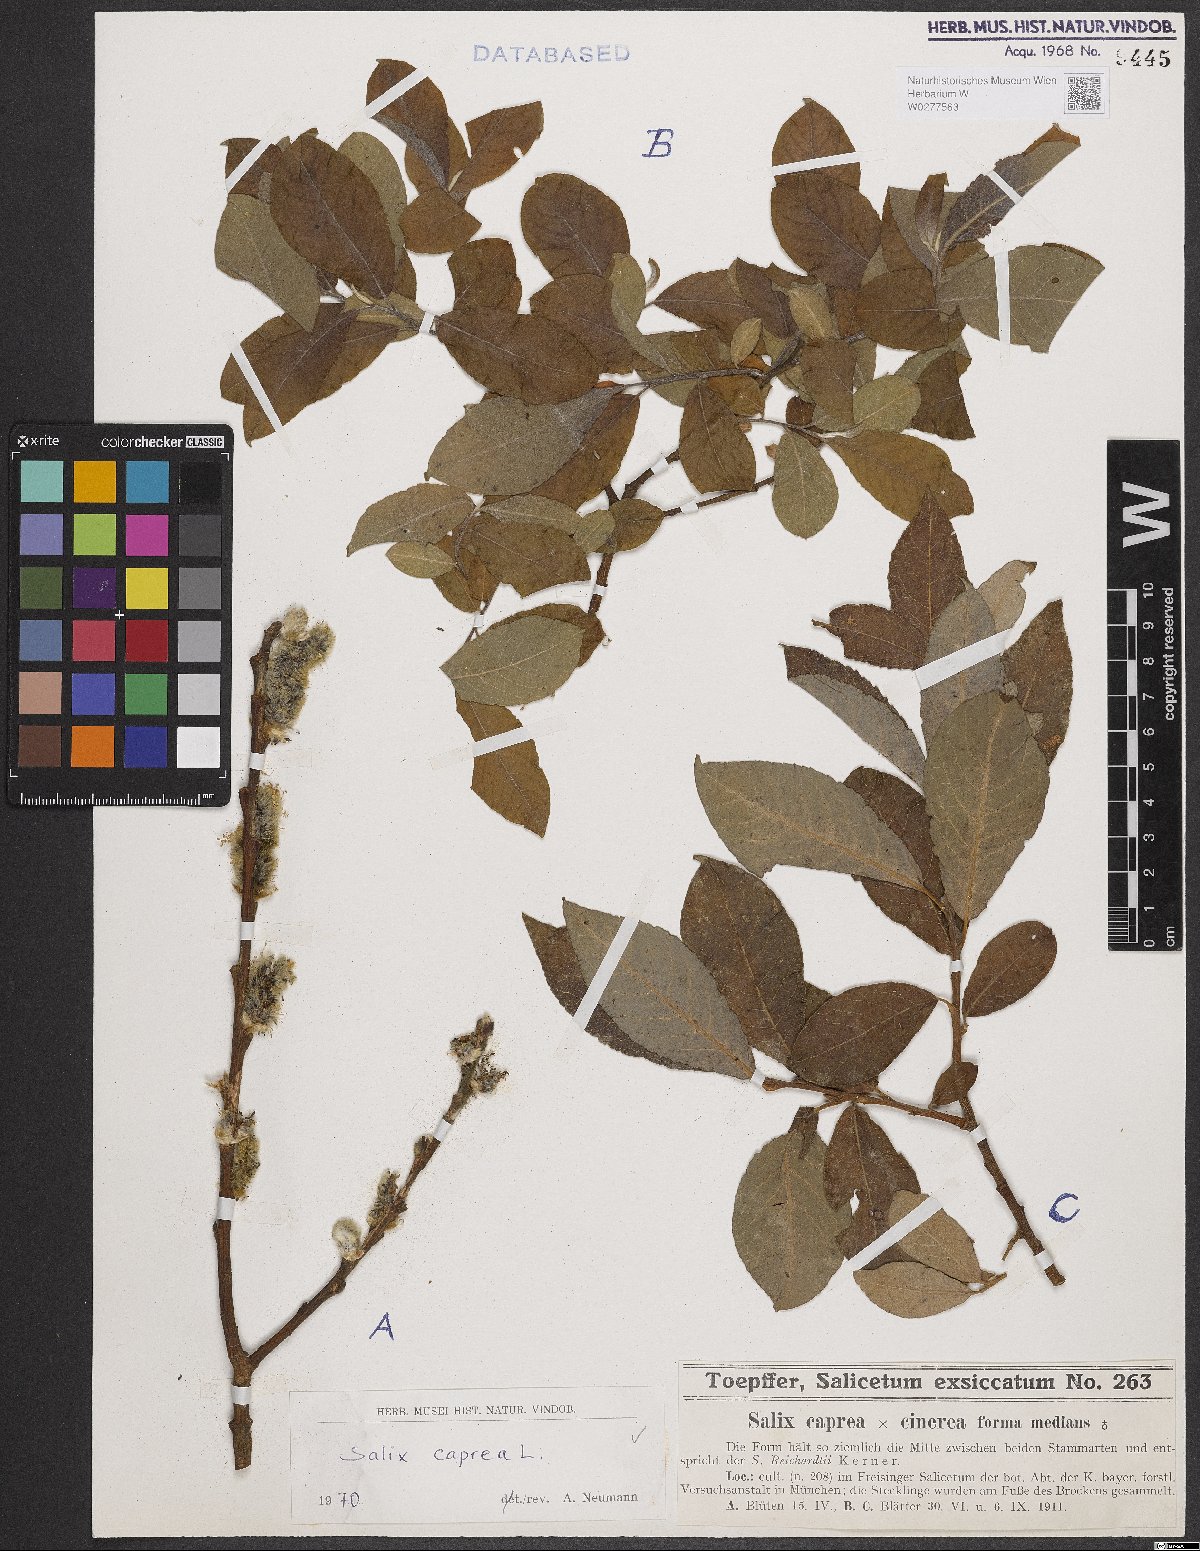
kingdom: Plantae
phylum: Tracheophyta
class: Magnoliopsida
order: Malpighiales
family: Salicaceae
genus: Salix
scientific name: Salix caprea
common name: Goat willow
